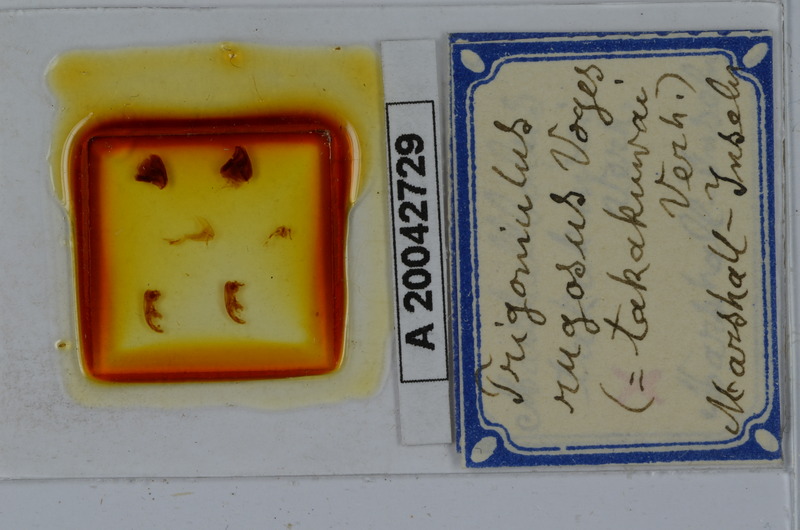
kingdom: Animalia
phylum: Arthropoda
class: Diplopoda
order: Spirobolida
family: Pachybolidae
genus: Trigoniulus
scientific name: Trigoniulus corallinus
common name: Millipede
